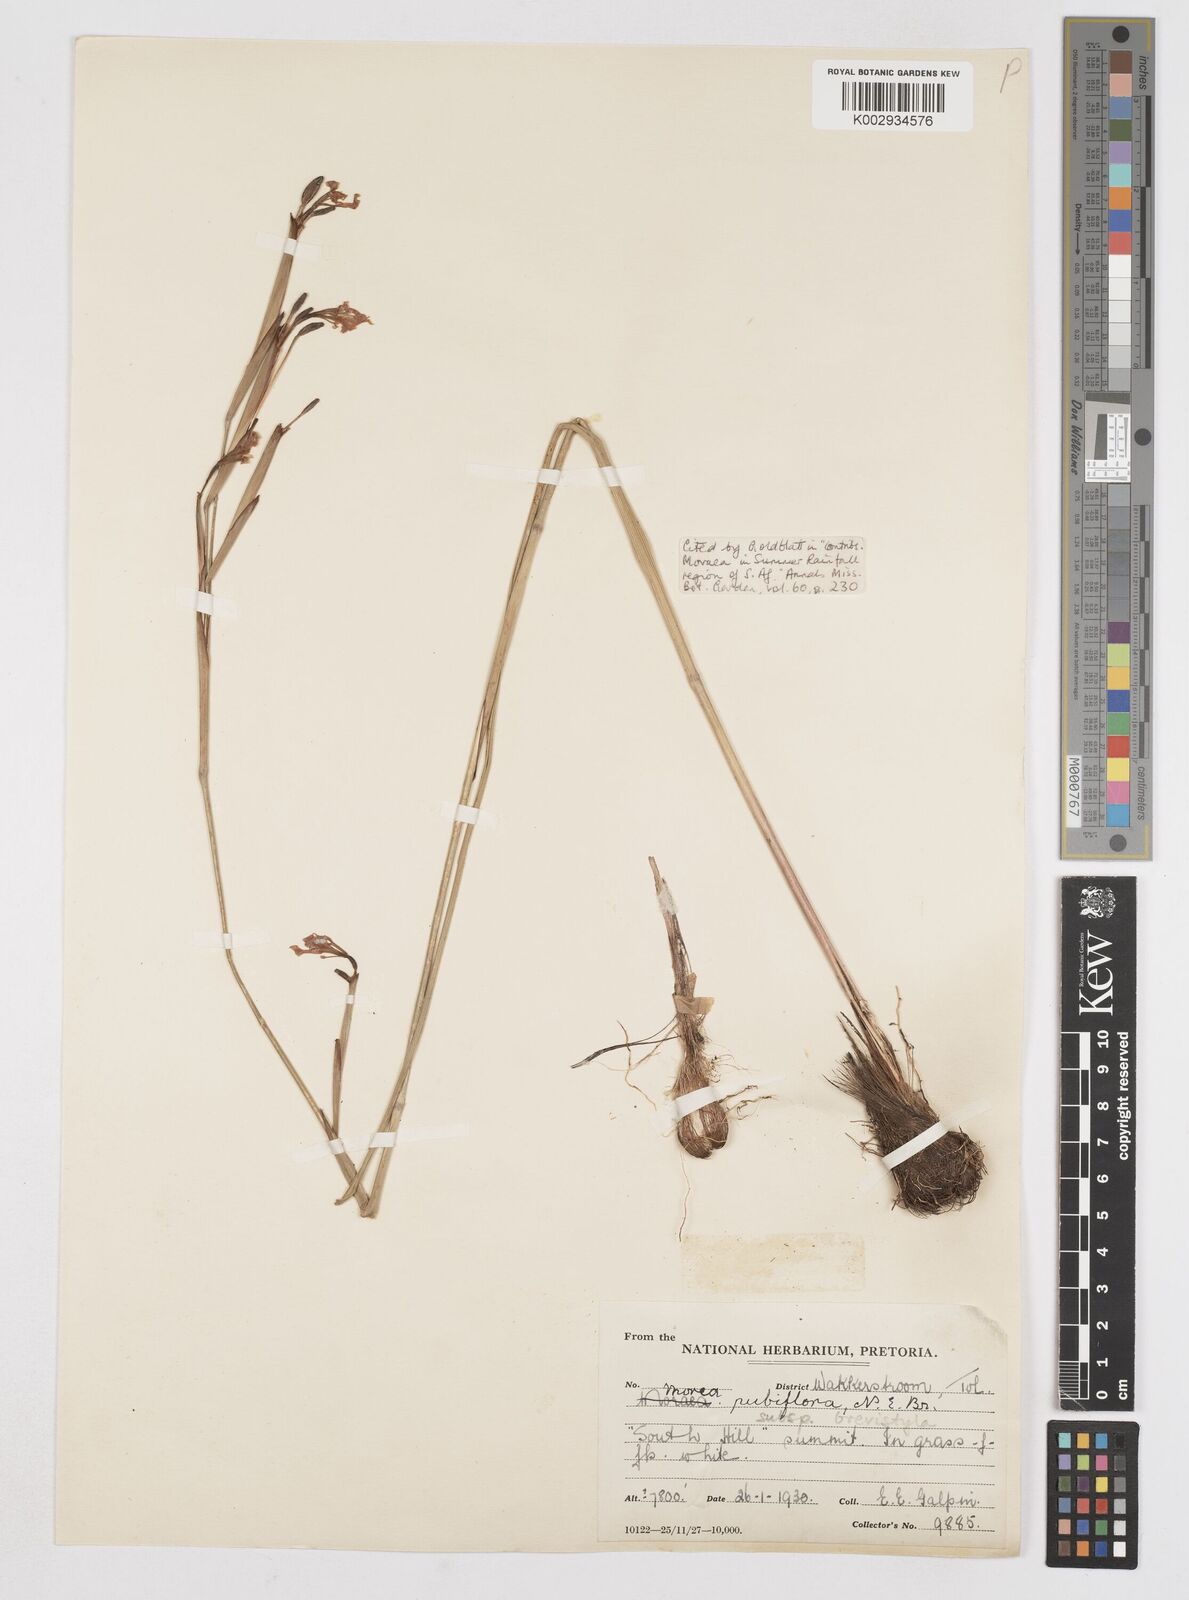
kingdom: Plantae
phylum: Tracheophyta
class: Liliopsida
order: Asparagales
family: Iridaceae
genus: Moraea
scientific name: Moraea brevistyla
